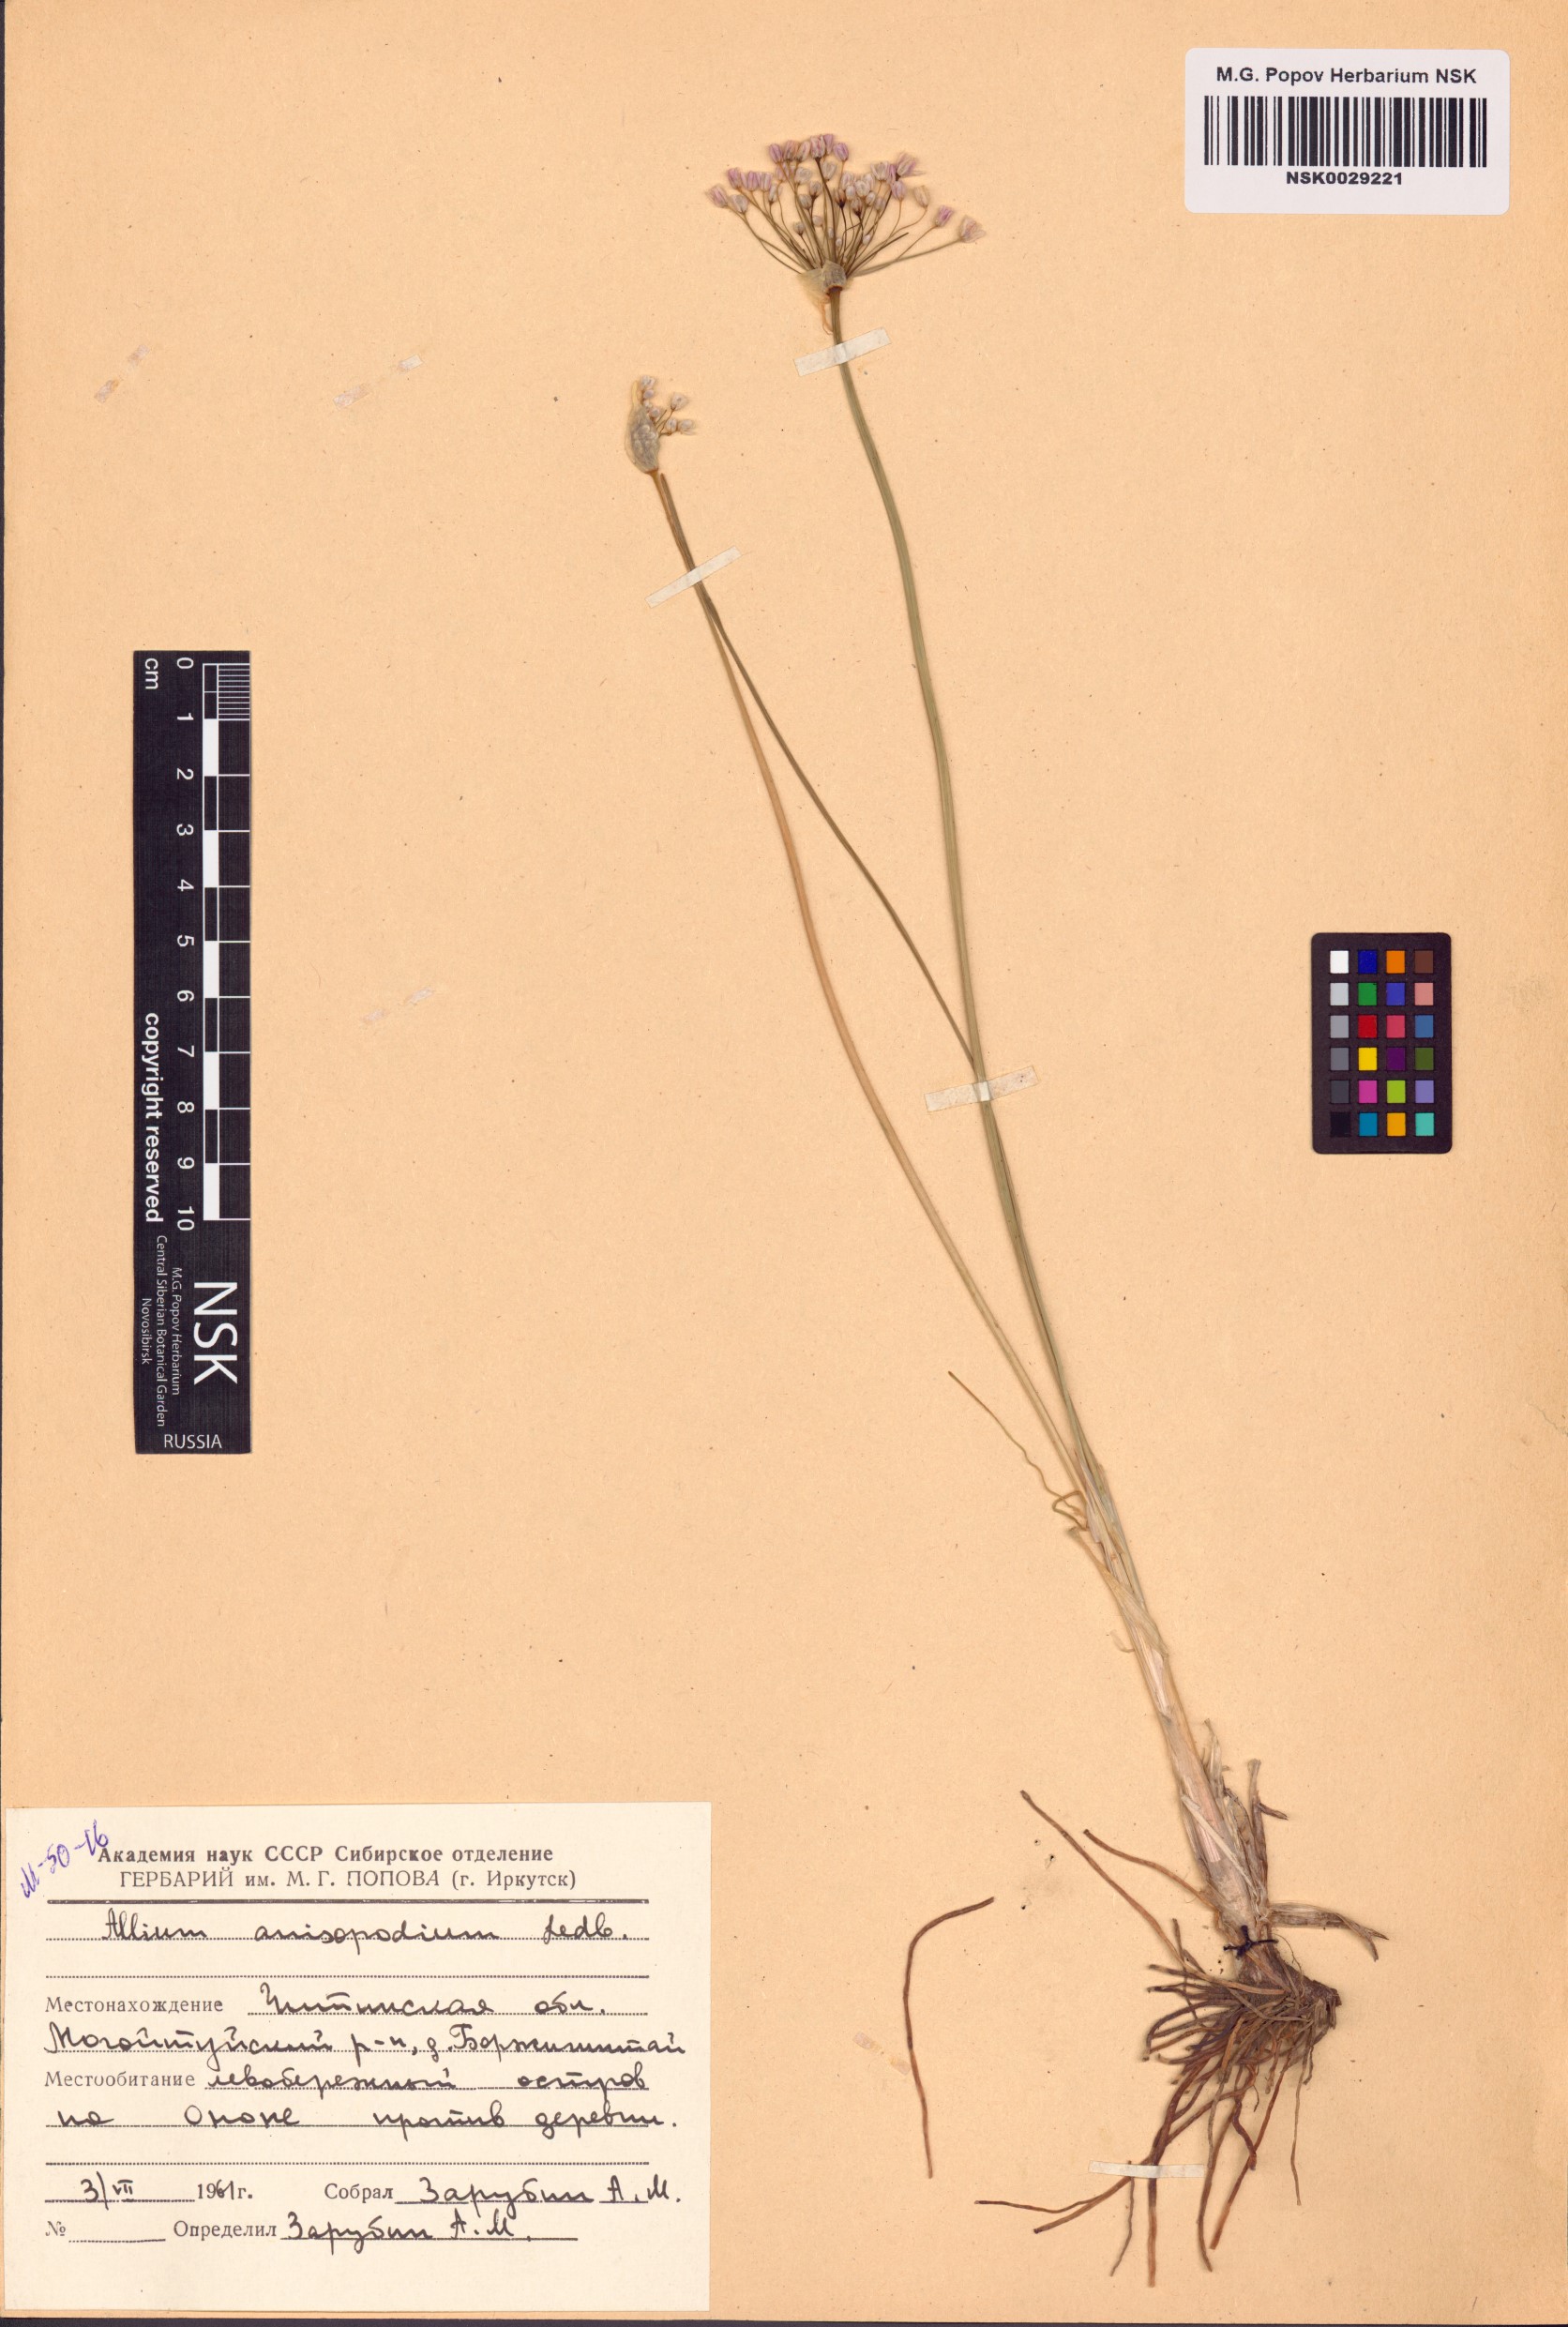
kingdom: Plantae
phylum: Tracheophyta
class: Liliopsida
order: Asparagales
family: Amaryllidaceae
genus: Allium
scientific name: Allium anisopodium
